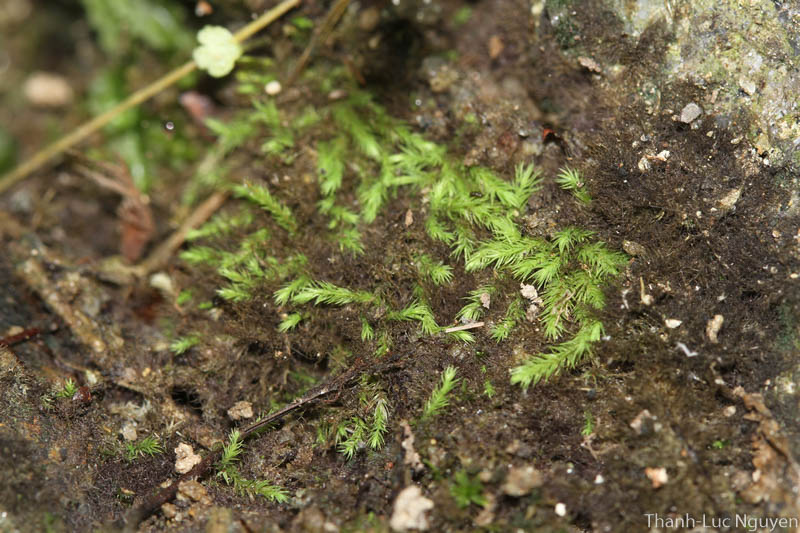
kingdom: Plantae
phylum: Bryophyta
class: Bryopsida
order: Bartramiales
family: Bartramiaceae
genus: Philonotis
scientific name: Philonotis pseudomollis
